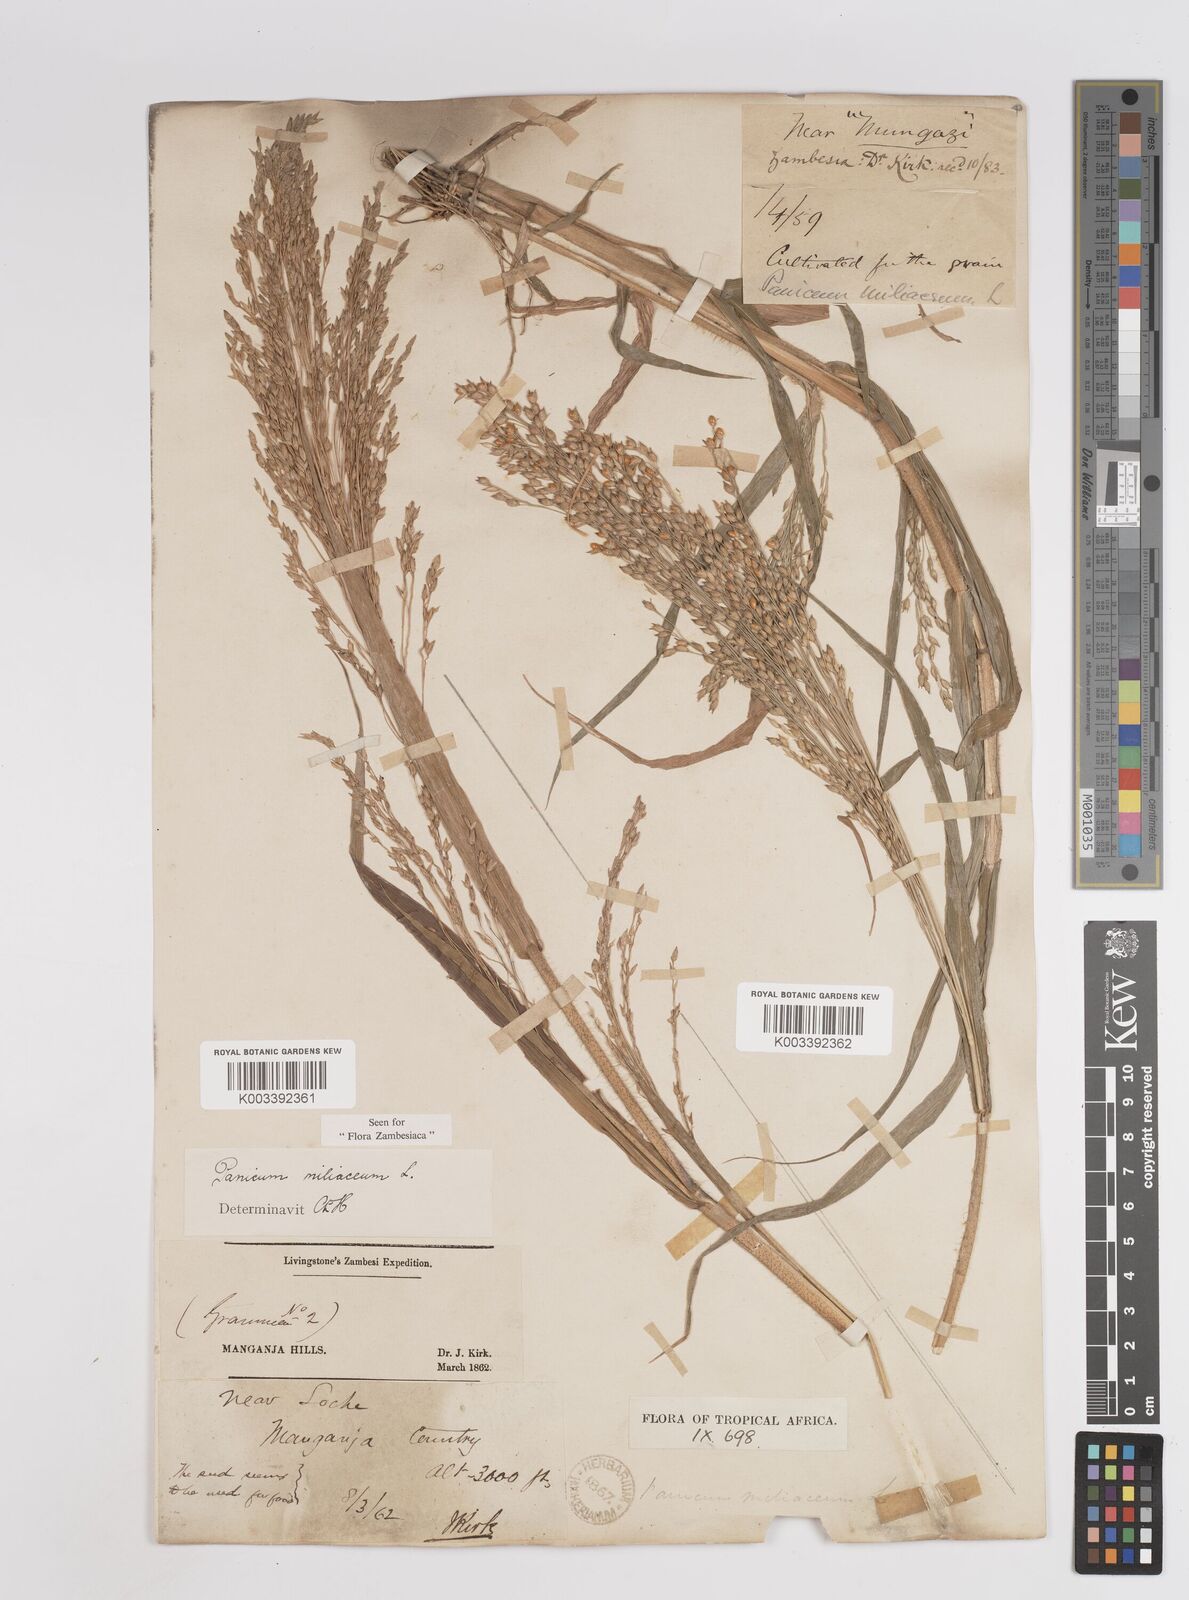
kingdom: Plantae
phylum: Tracheophyta
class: Liliopsida
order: Poales
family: Poaceae
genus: Panicum
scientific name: Panicum miliaceum
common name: Common millet
